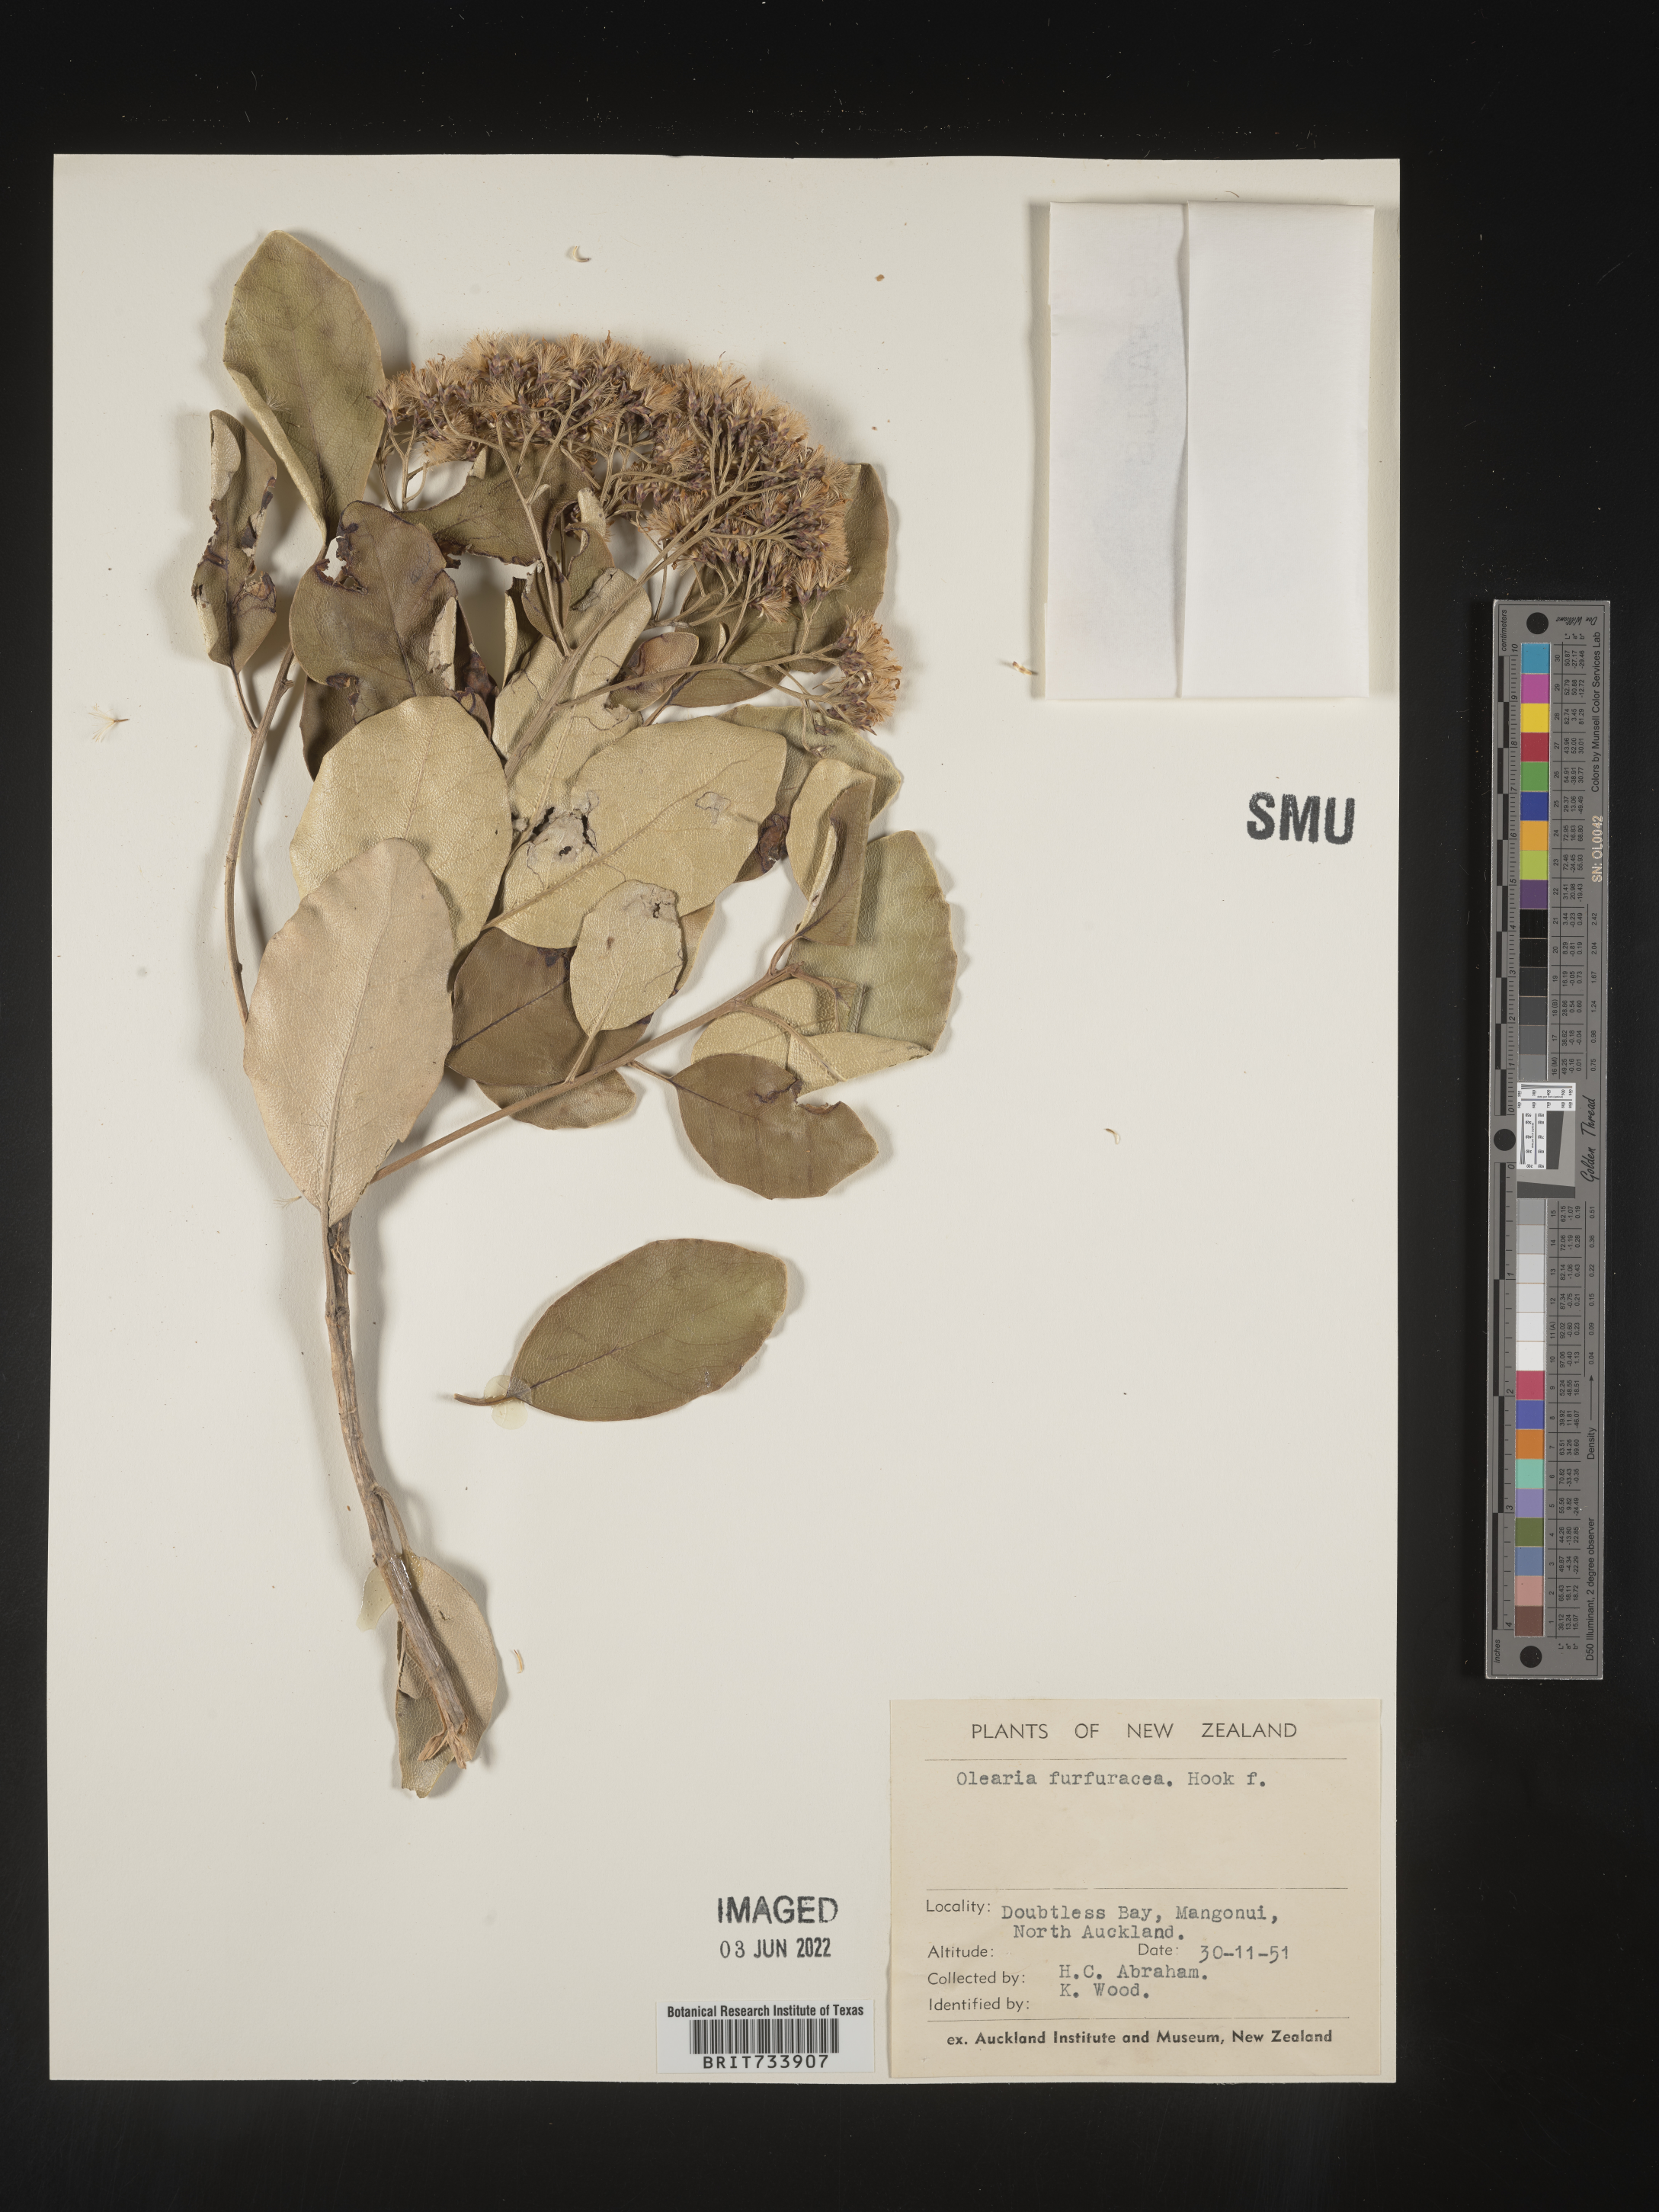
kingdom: Plantae
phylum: Tracheophyta
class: Magnoliopsida
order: Asterales
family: Asteraceae
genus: Olearia
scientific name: Olearia
